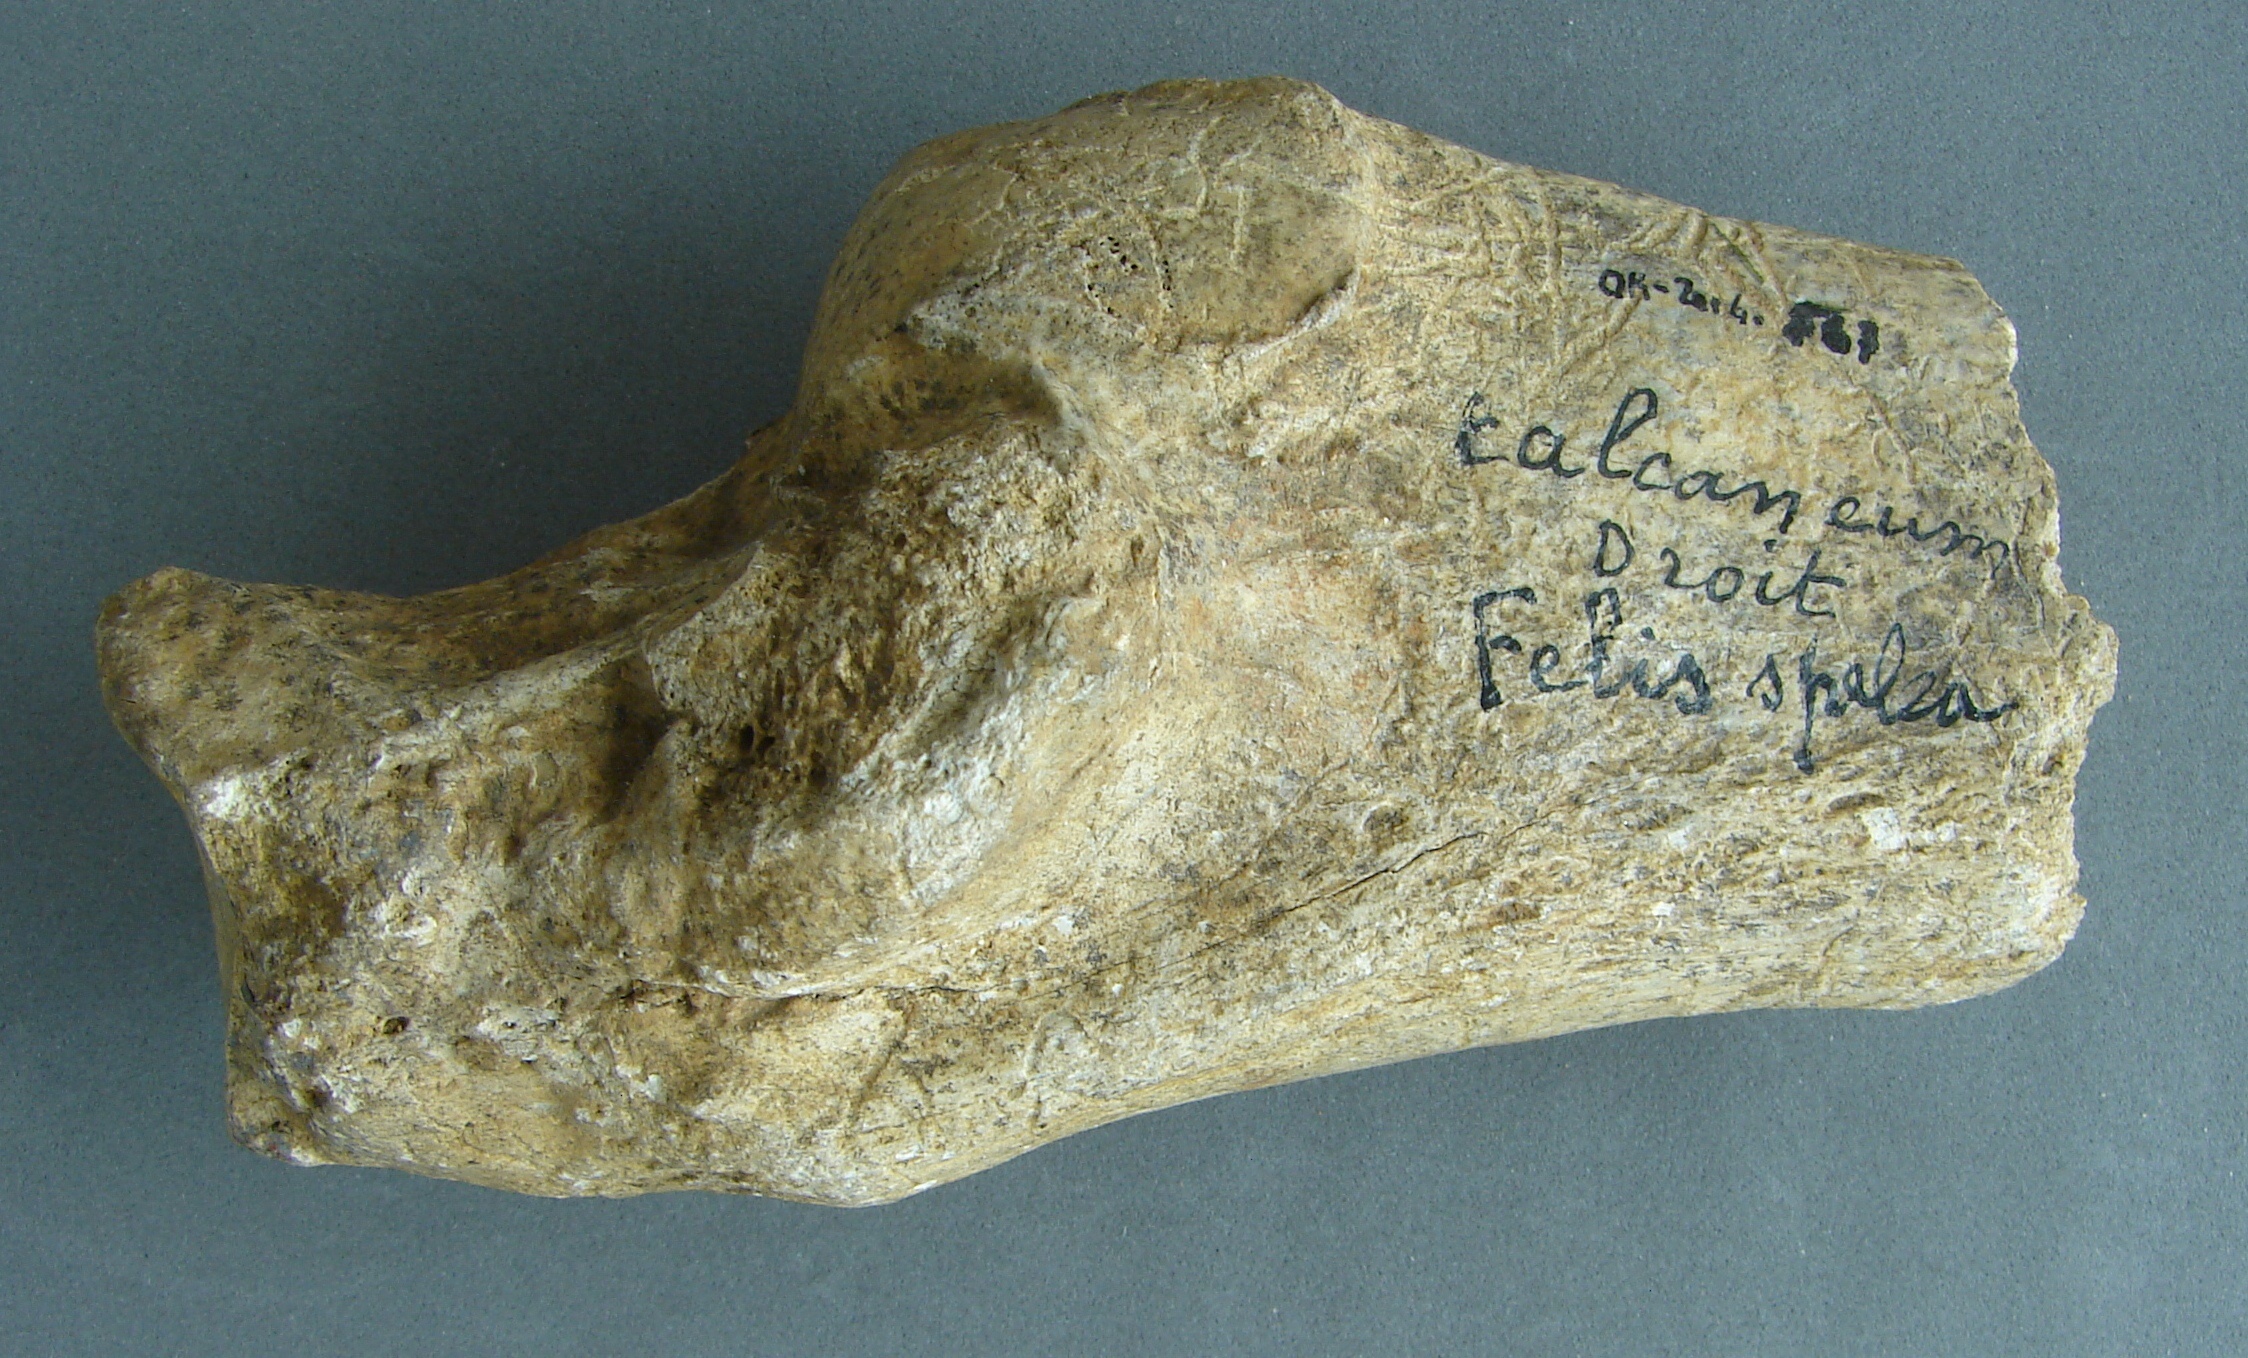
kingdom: Animalia
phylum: Chordata
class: Mammalia
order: Carnivora
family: Felidae
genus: Panthera
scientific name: Panthera spelaea
